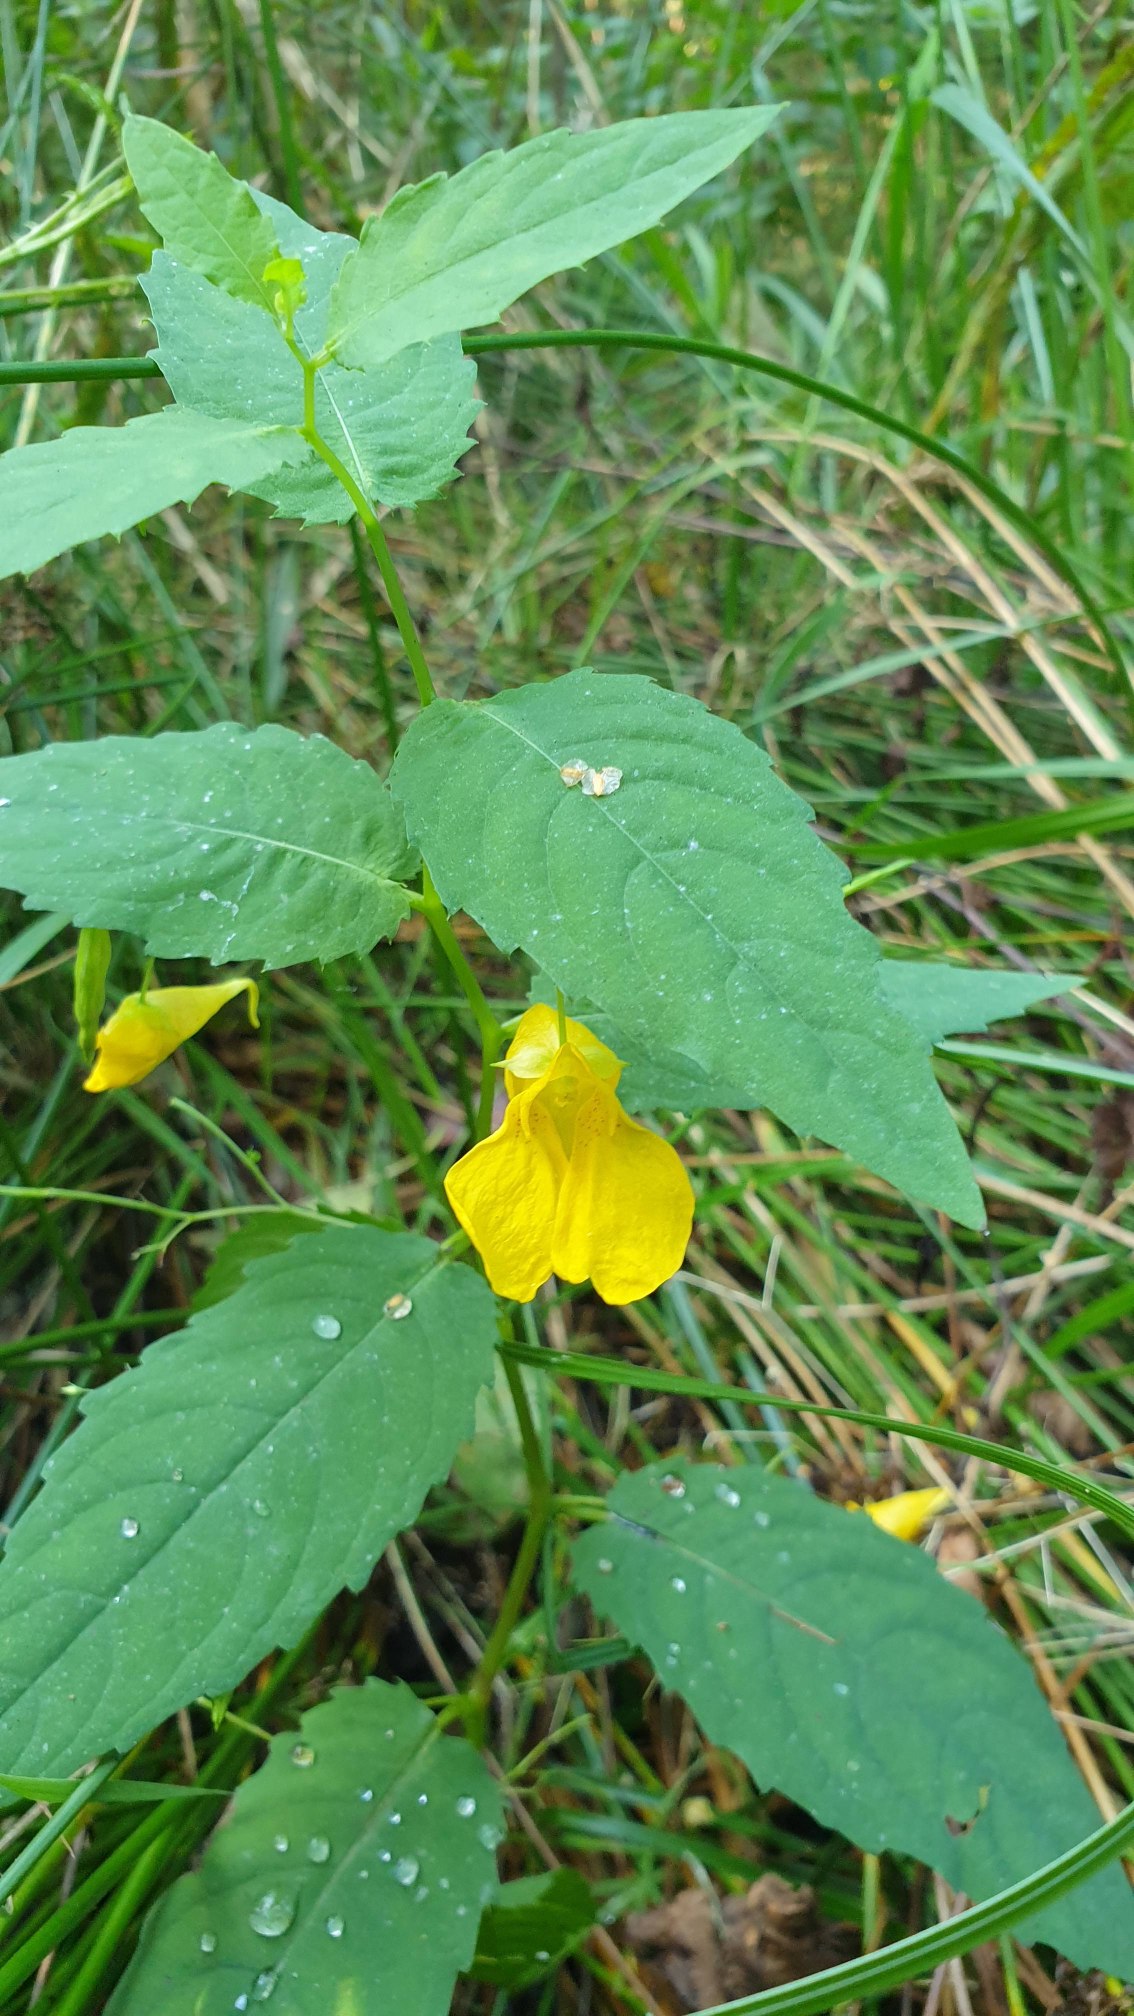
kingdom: Plantae
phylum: Tracheophyta
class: Magnoliopsida
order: Ericales
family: Balsaminaceae
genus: Impatiens
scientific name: Impatiens noli-tangere
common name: Spring-balsamin
